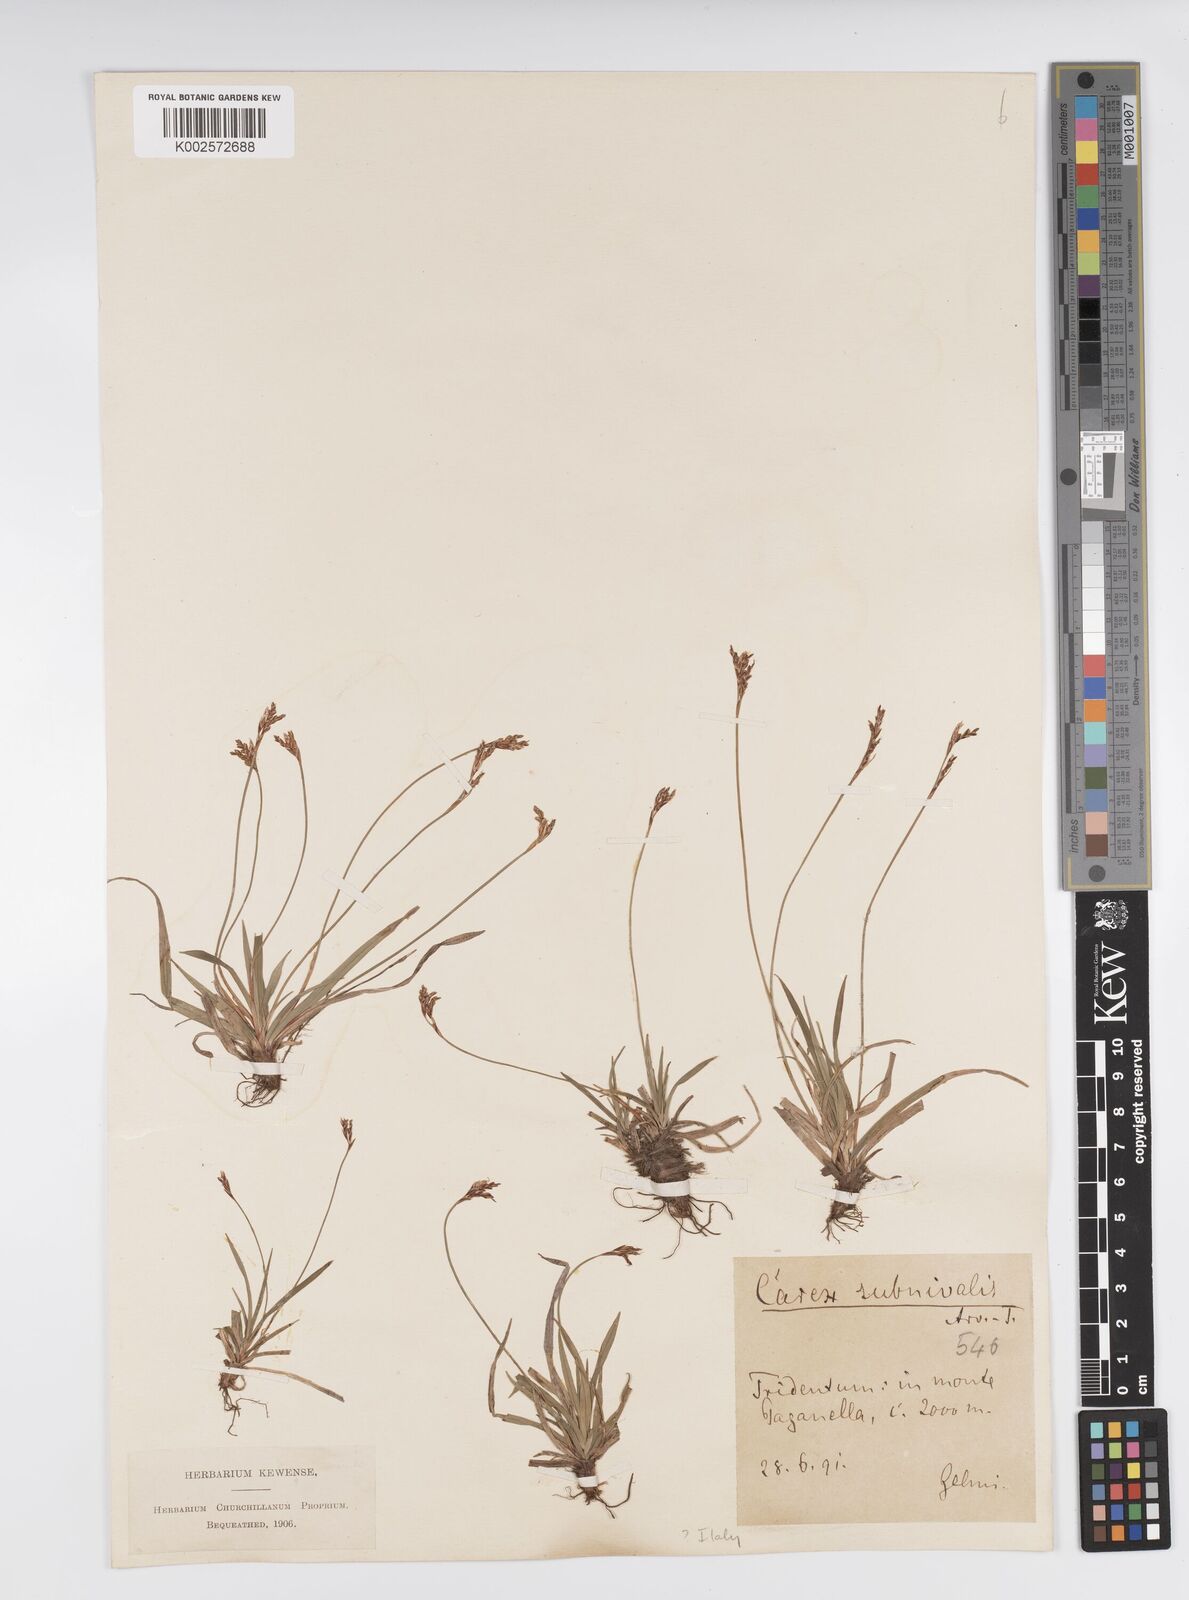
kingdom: Plantae
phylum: Tracheophyta
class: Liliopsida
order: Poales
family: Cyperaceae
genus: Carex
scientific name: Carex ornithopoda
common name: Bird's-foot sedge
